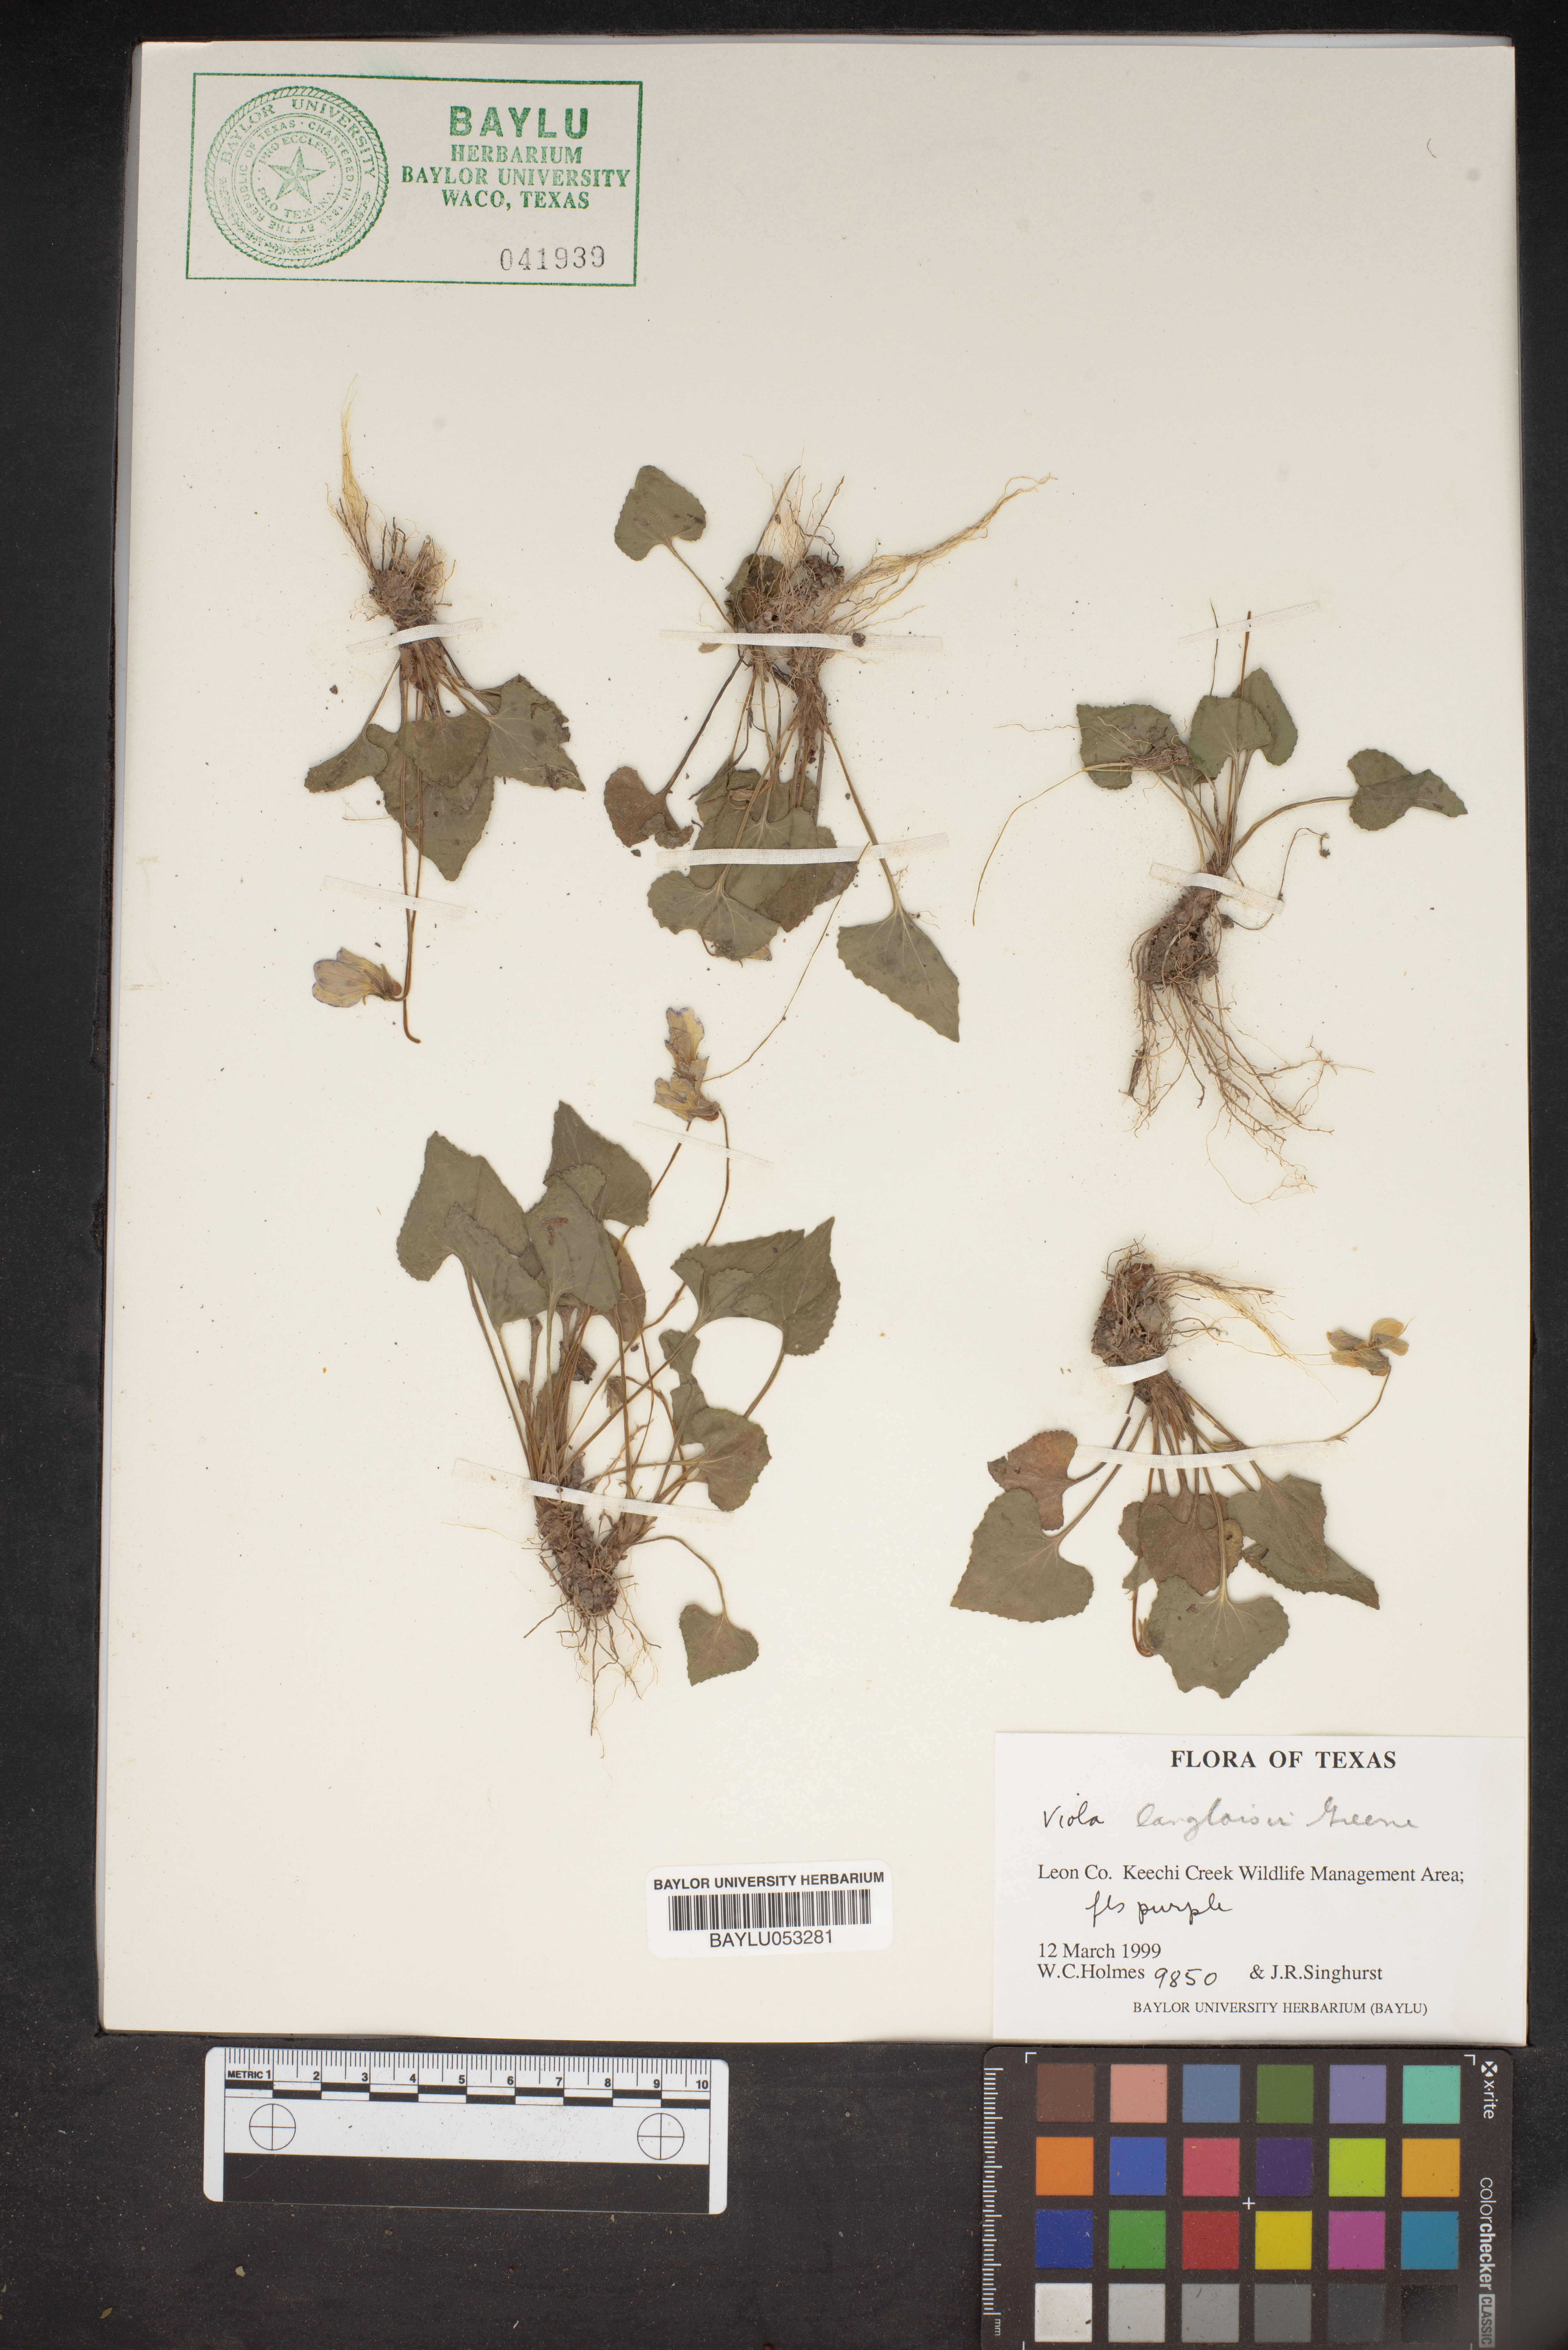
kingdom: Plantae
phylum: Tracheophyta
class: Magnoliopsida
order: Malpighiales
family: Violaceae
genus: Viola
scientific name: Viola langloisii
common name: Langlois' violet
